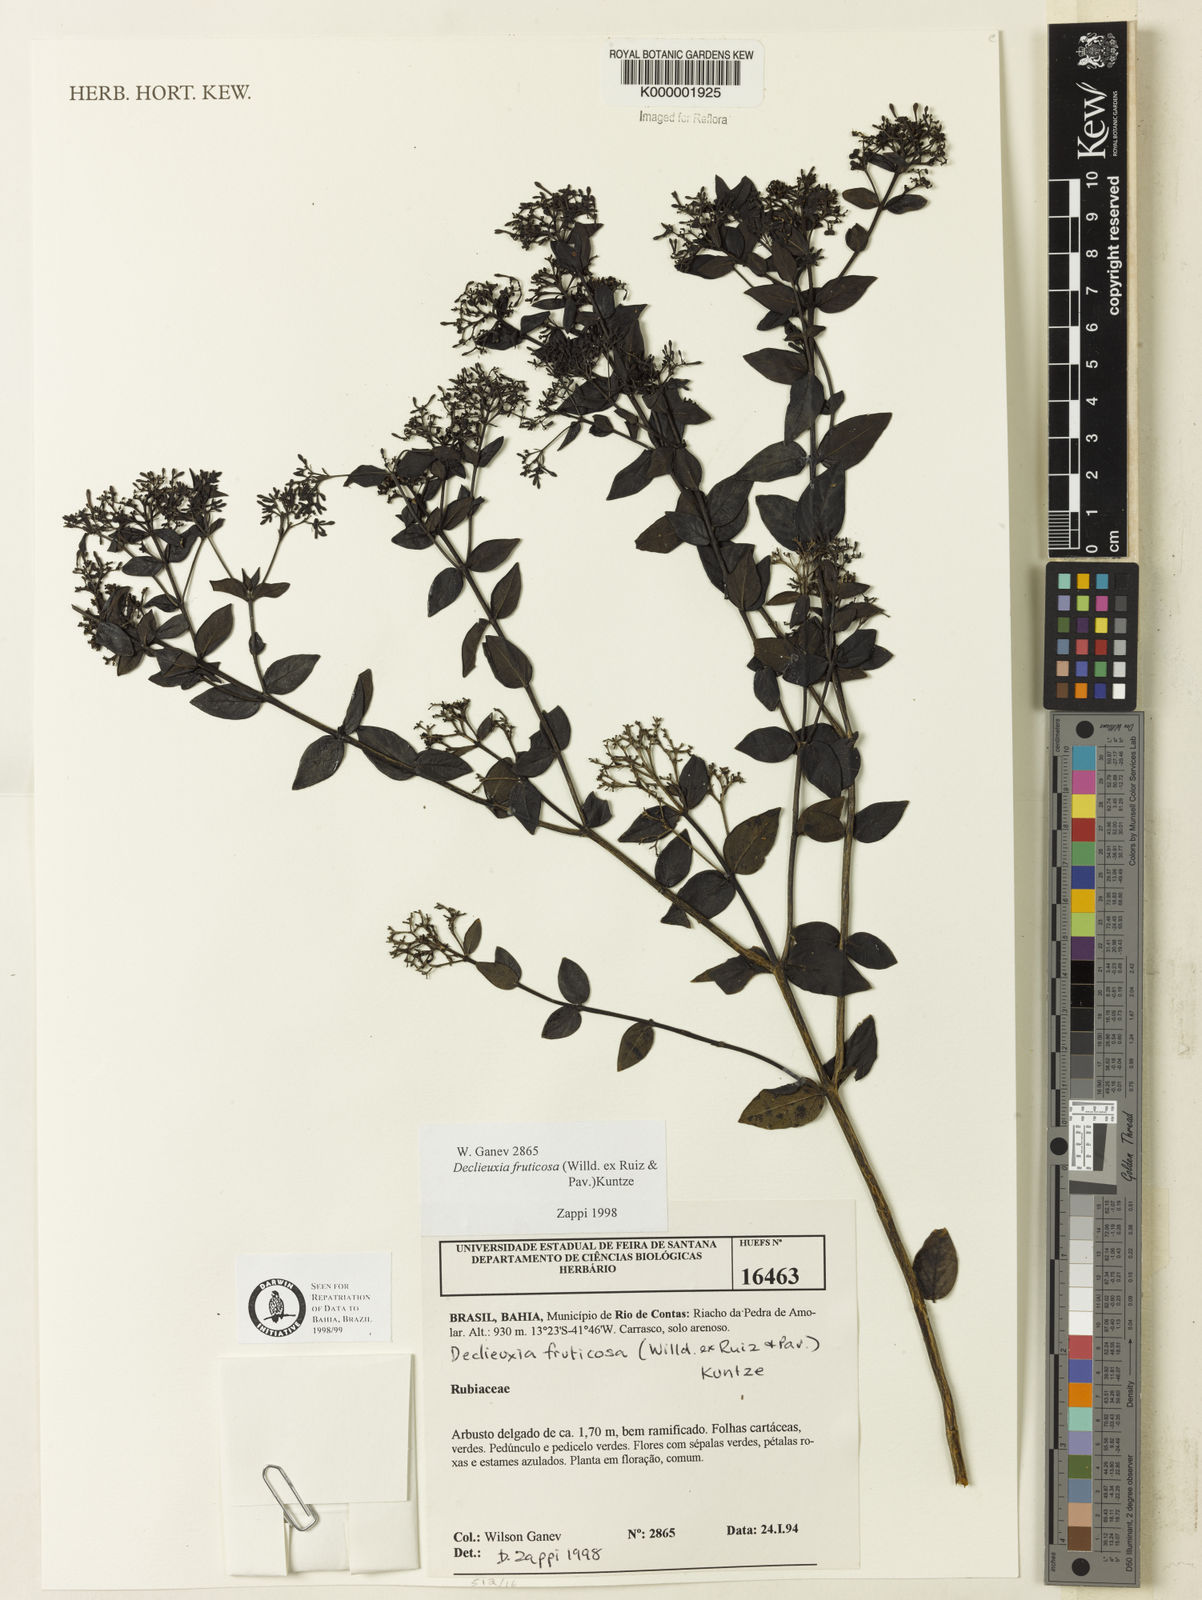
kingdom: Plantae
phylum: Tracheophyta
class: Magnoliopsida
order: Gentianales
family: Rubiaceae
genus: Declieuxia
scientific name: Declieuxia fruticosa
